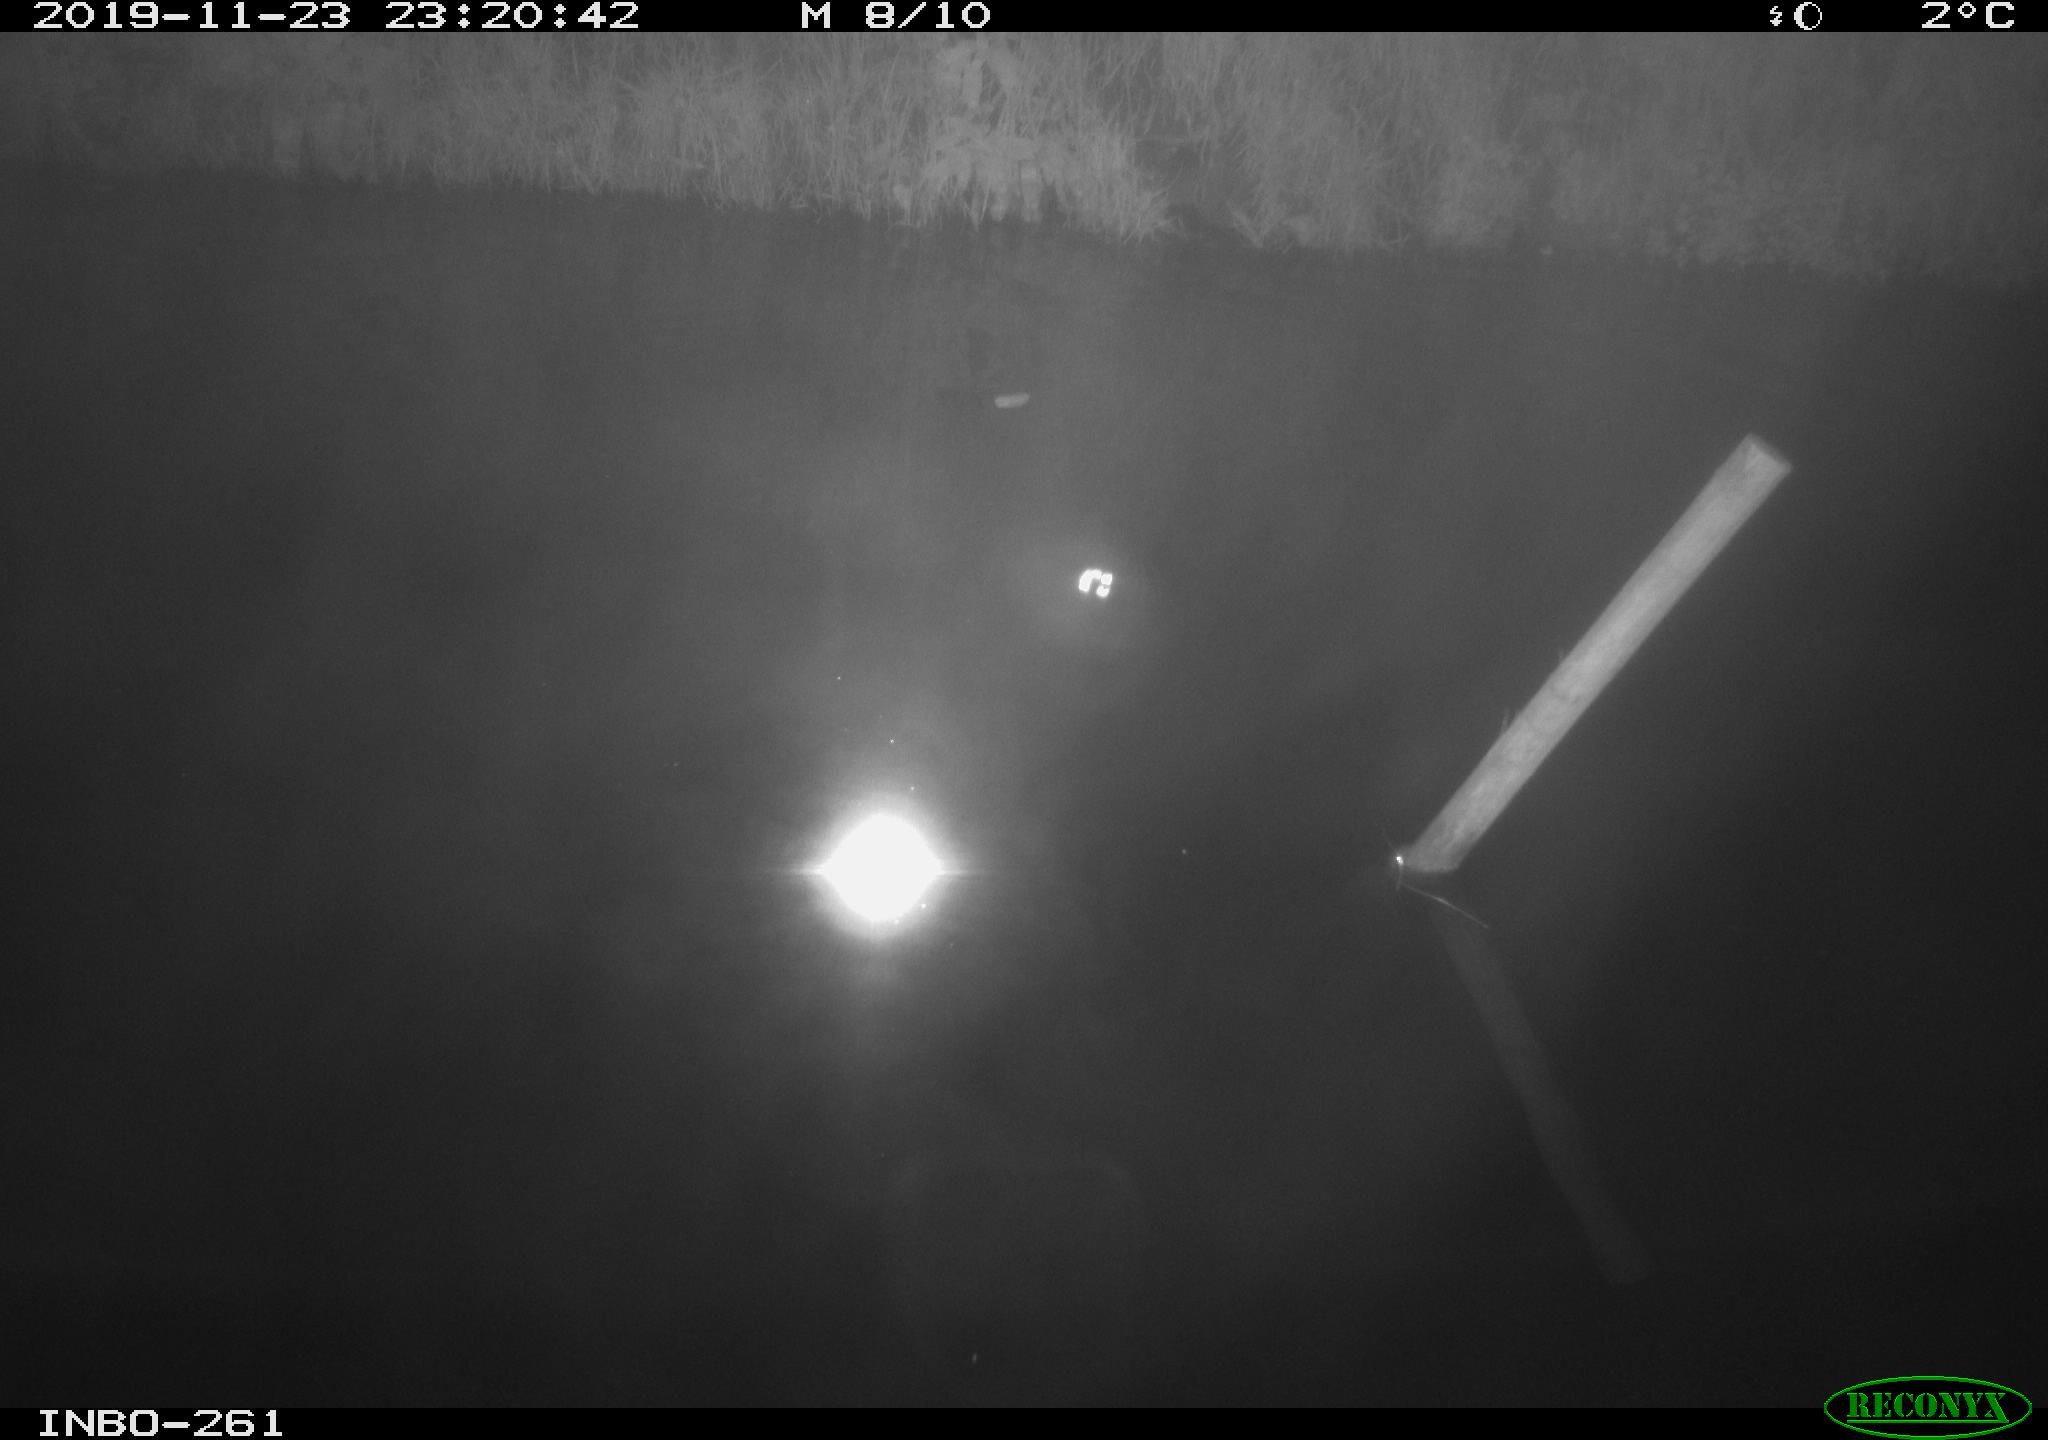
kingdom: Animalia
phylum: Chordata
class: Aves
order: Anseriformes
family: Anatidae
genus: Anas
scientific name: Anas platyrhynchos
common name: Mallard
